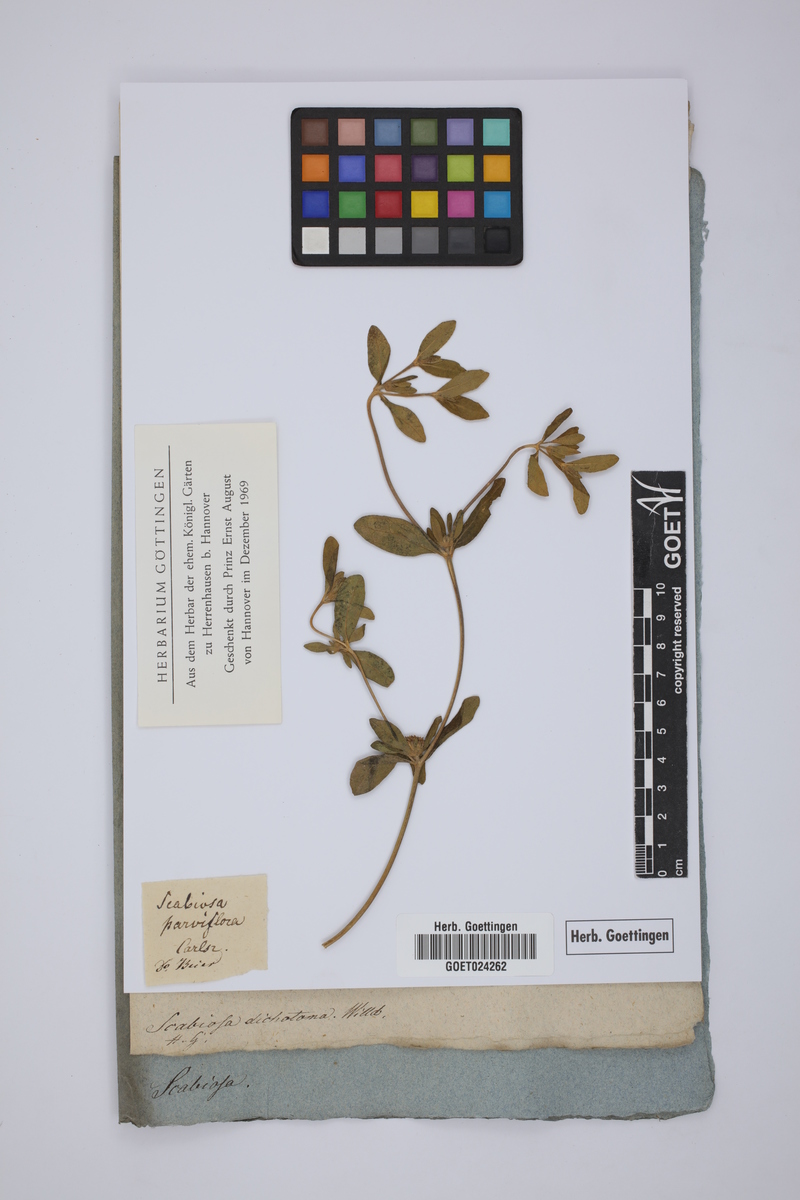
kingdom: Plantae
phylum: Tracheophyta
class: Magnoliopsida
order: Dipsacales
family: Caprifoliaceae
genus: Scabiosa
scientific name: Scabiosa parviflora
